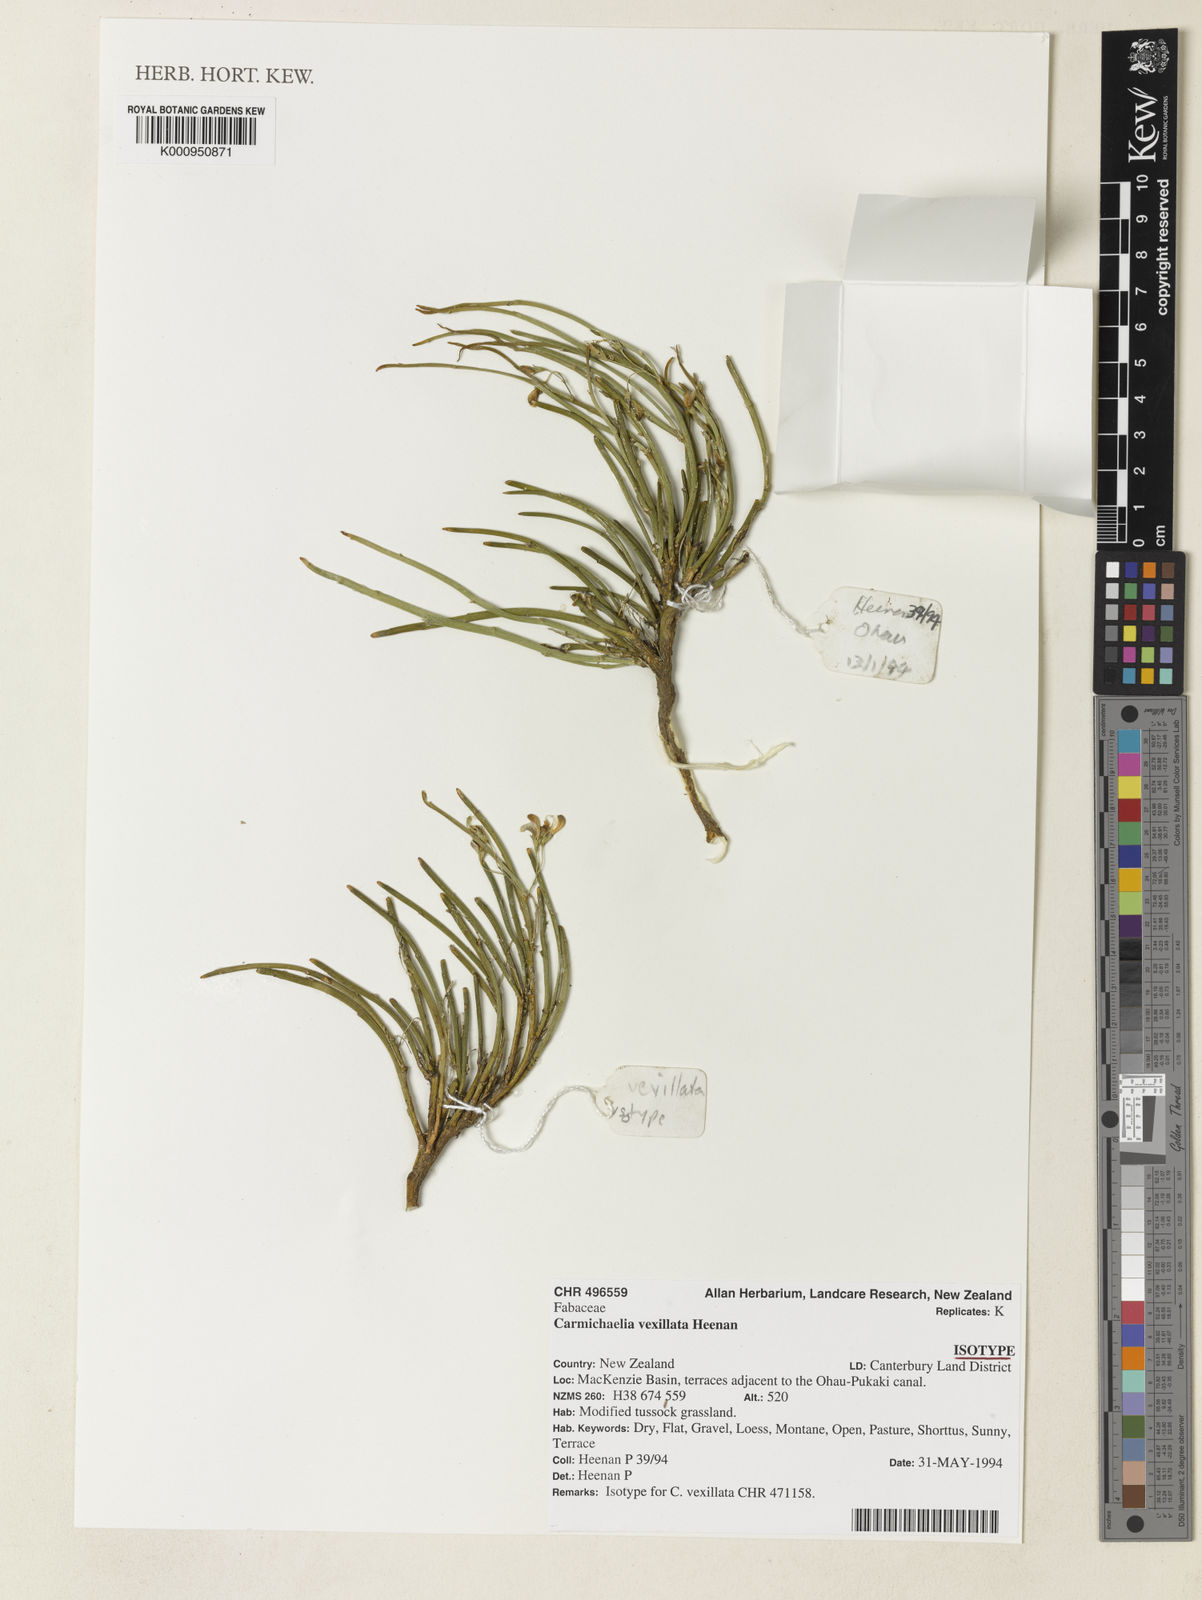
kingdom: Plantae
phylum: Tracheophyta
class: Magnoliopsida
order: Fabales
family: Fabaceae
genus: Carmichaelia
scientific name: Carmichaelia vexillata
